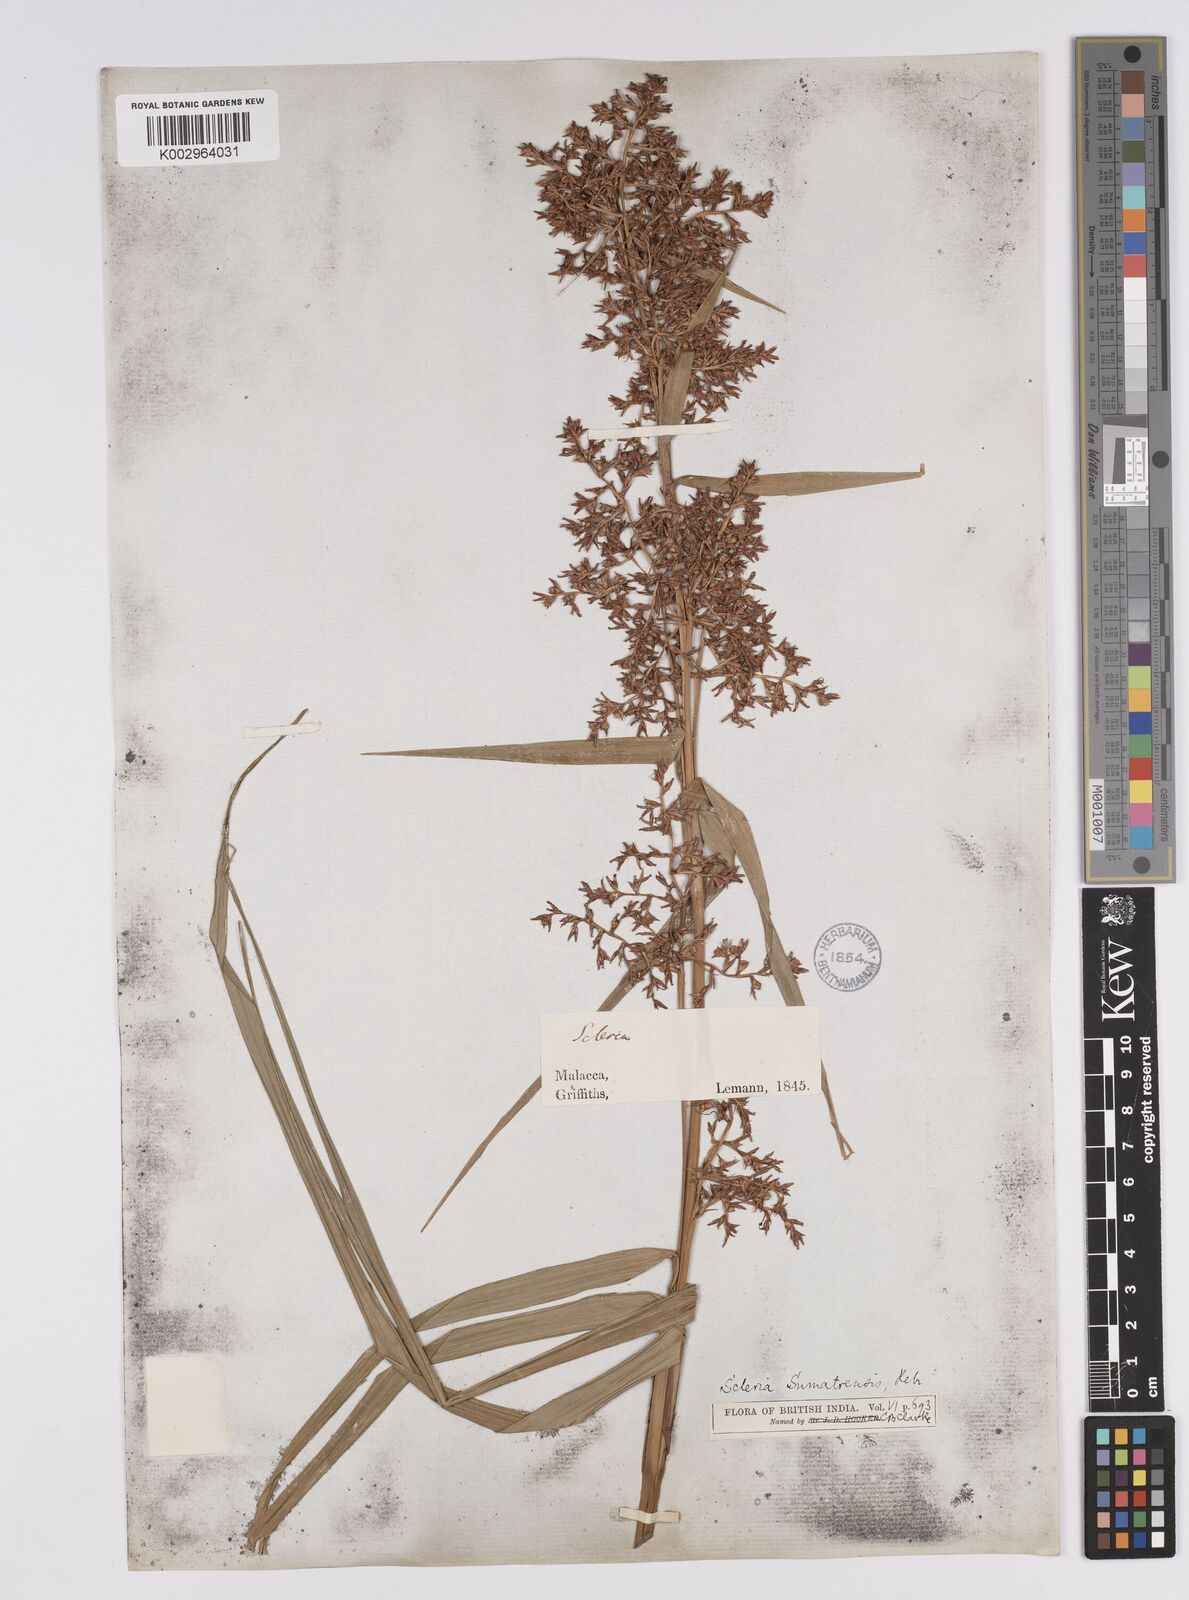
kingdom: Plantae
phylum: Tracheophyta
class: Liliopsida
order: Poales
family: Cyperaceae
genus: Scleria
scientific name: Scleria sumatrensis
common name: Sumatran scleria
